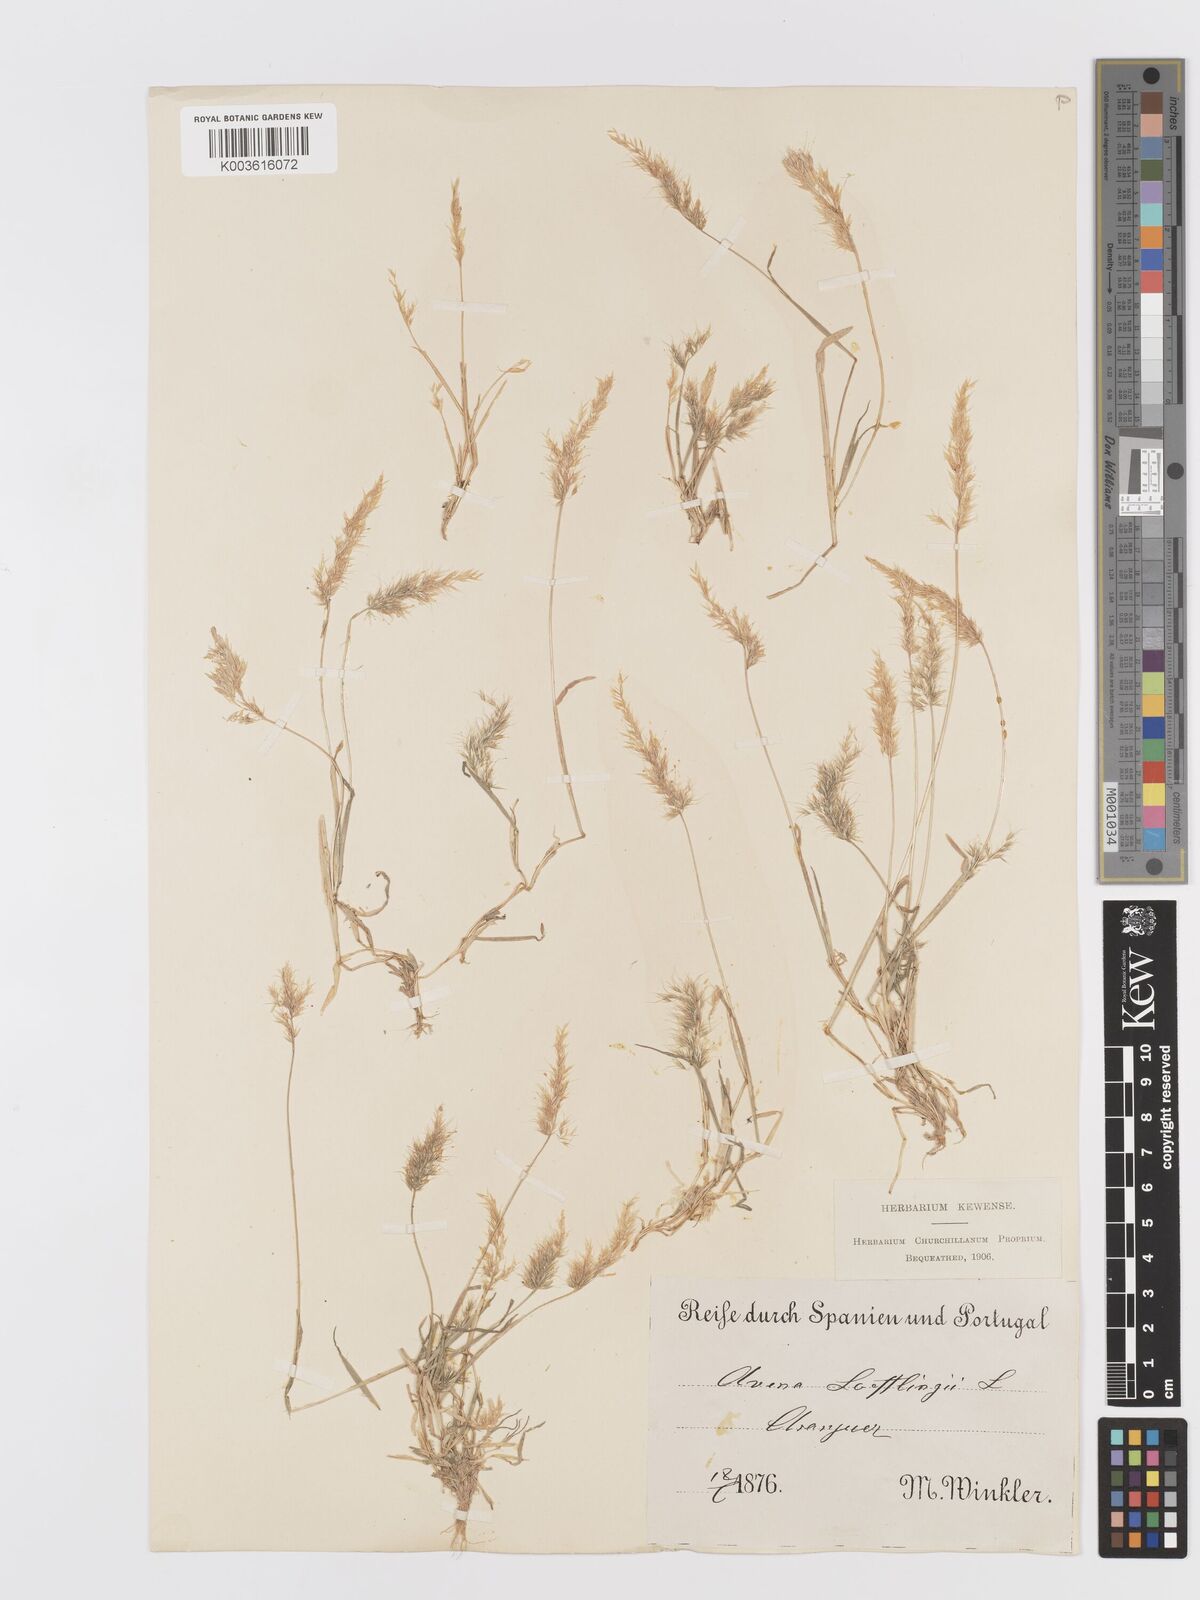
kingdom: Plantae
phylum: Tracheophyta
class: Liliopsida
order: Poales
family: Poaceae
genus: Trisetaria
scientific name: Trisetaria loeflingiana
